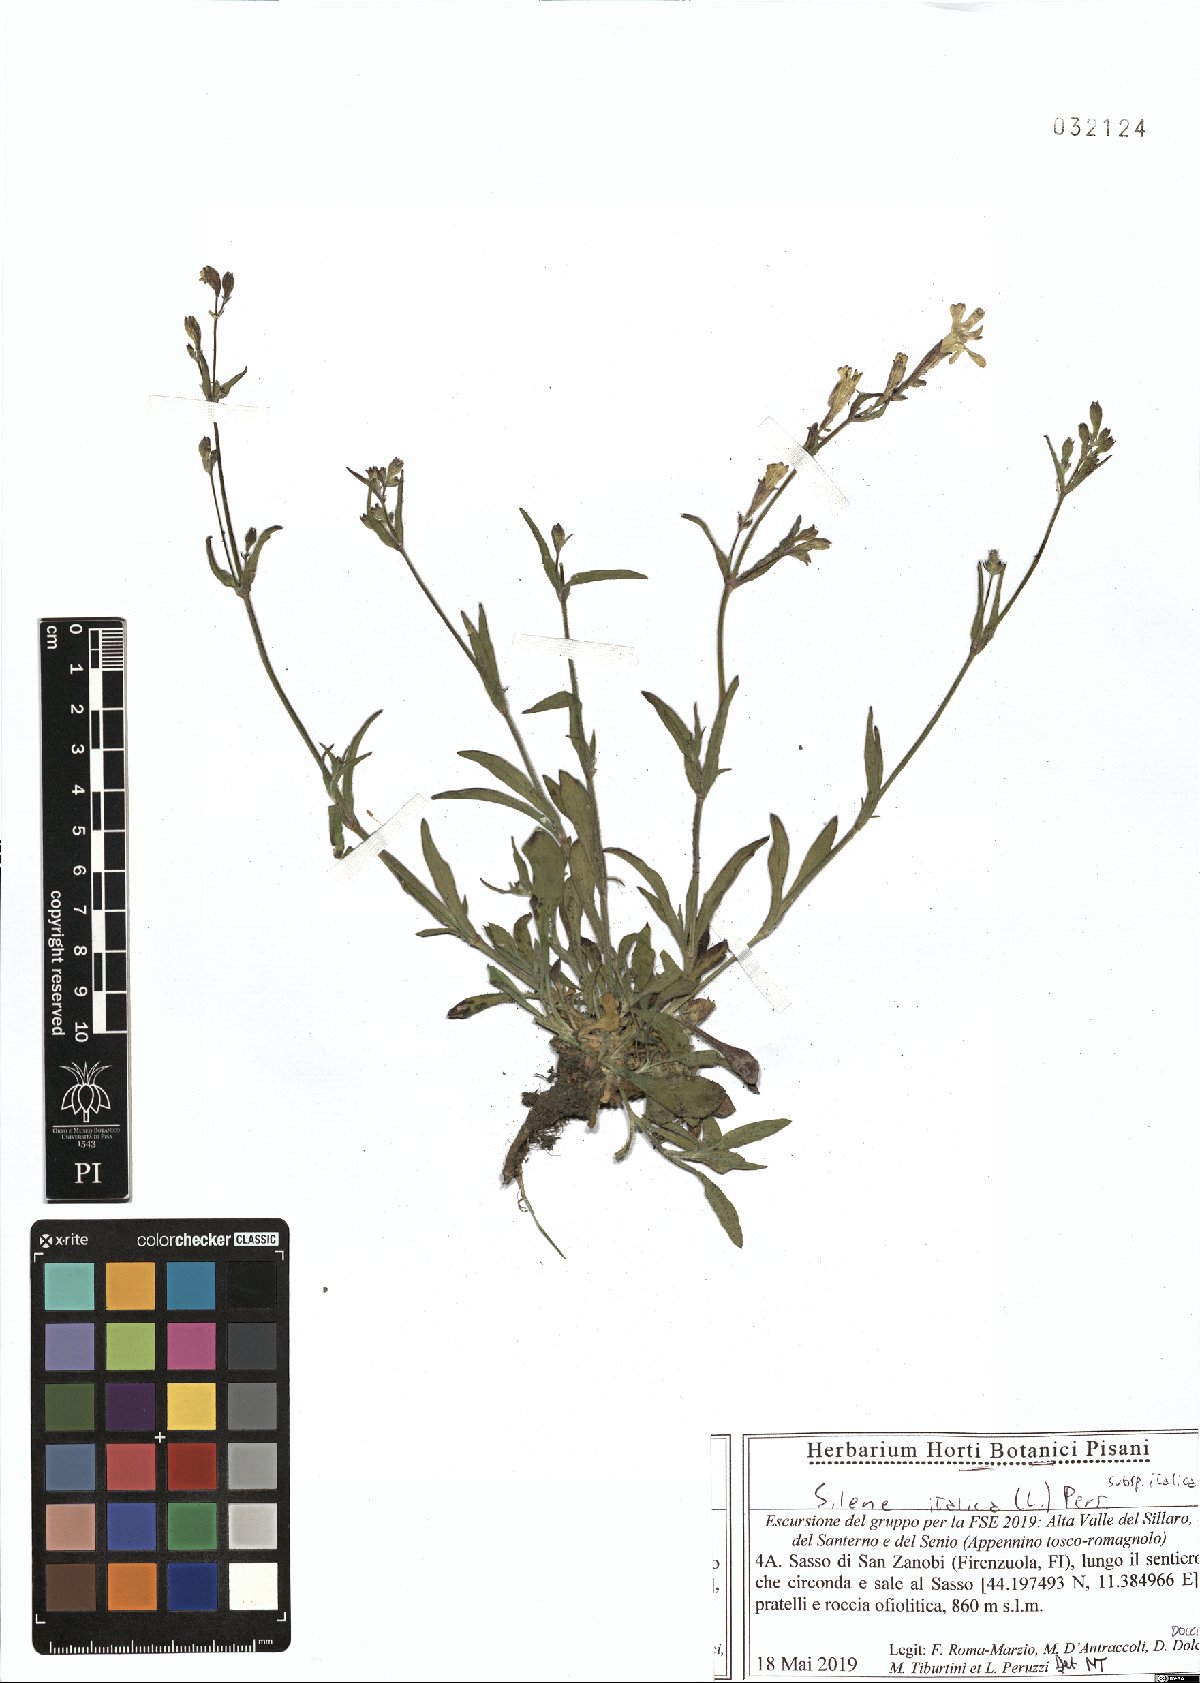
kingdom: Plantae
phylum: Tracheophyta
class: Magnoliopsida
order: Caryophyllales
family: Caryophyllaceae
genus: Silene
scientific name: Silene italica
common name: Italian catchfly
